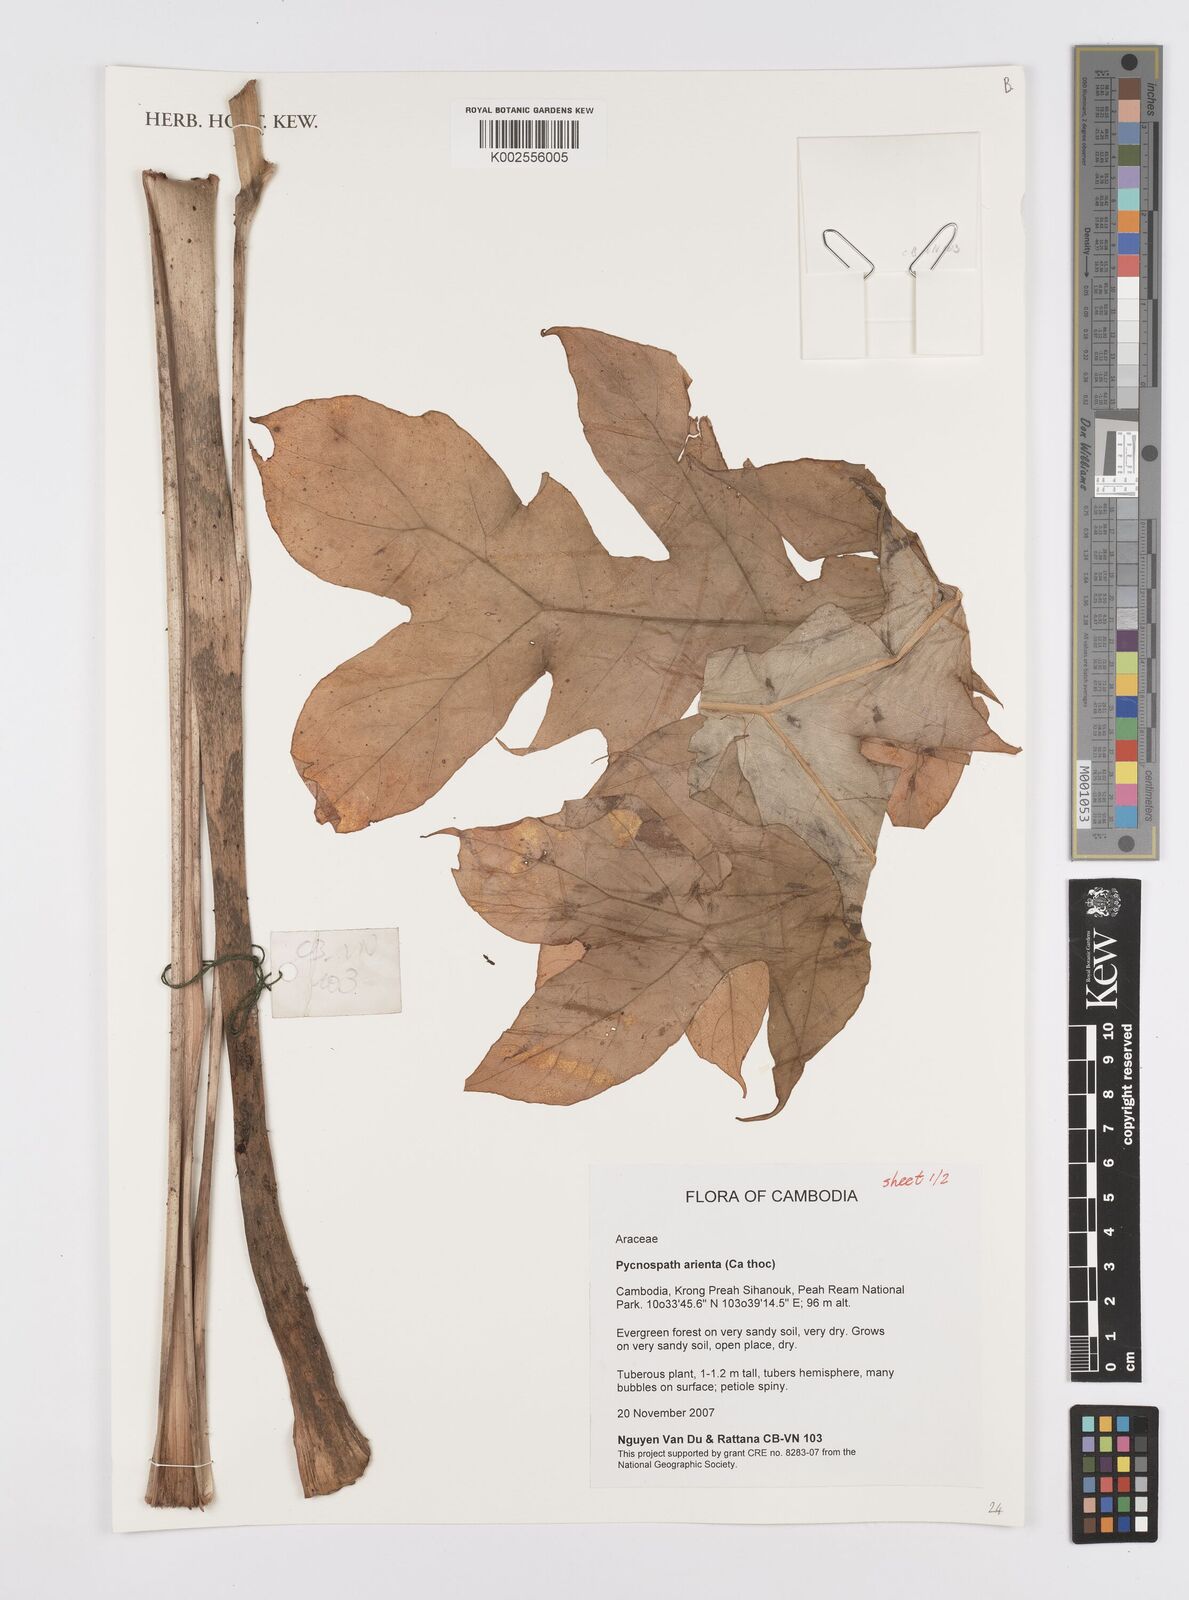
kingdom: Plantae
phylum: Tracheophyta
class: Liliopsida
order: Alismatales
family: Araceae
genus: Pycnospatha
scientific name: Pycnospatha arietina
